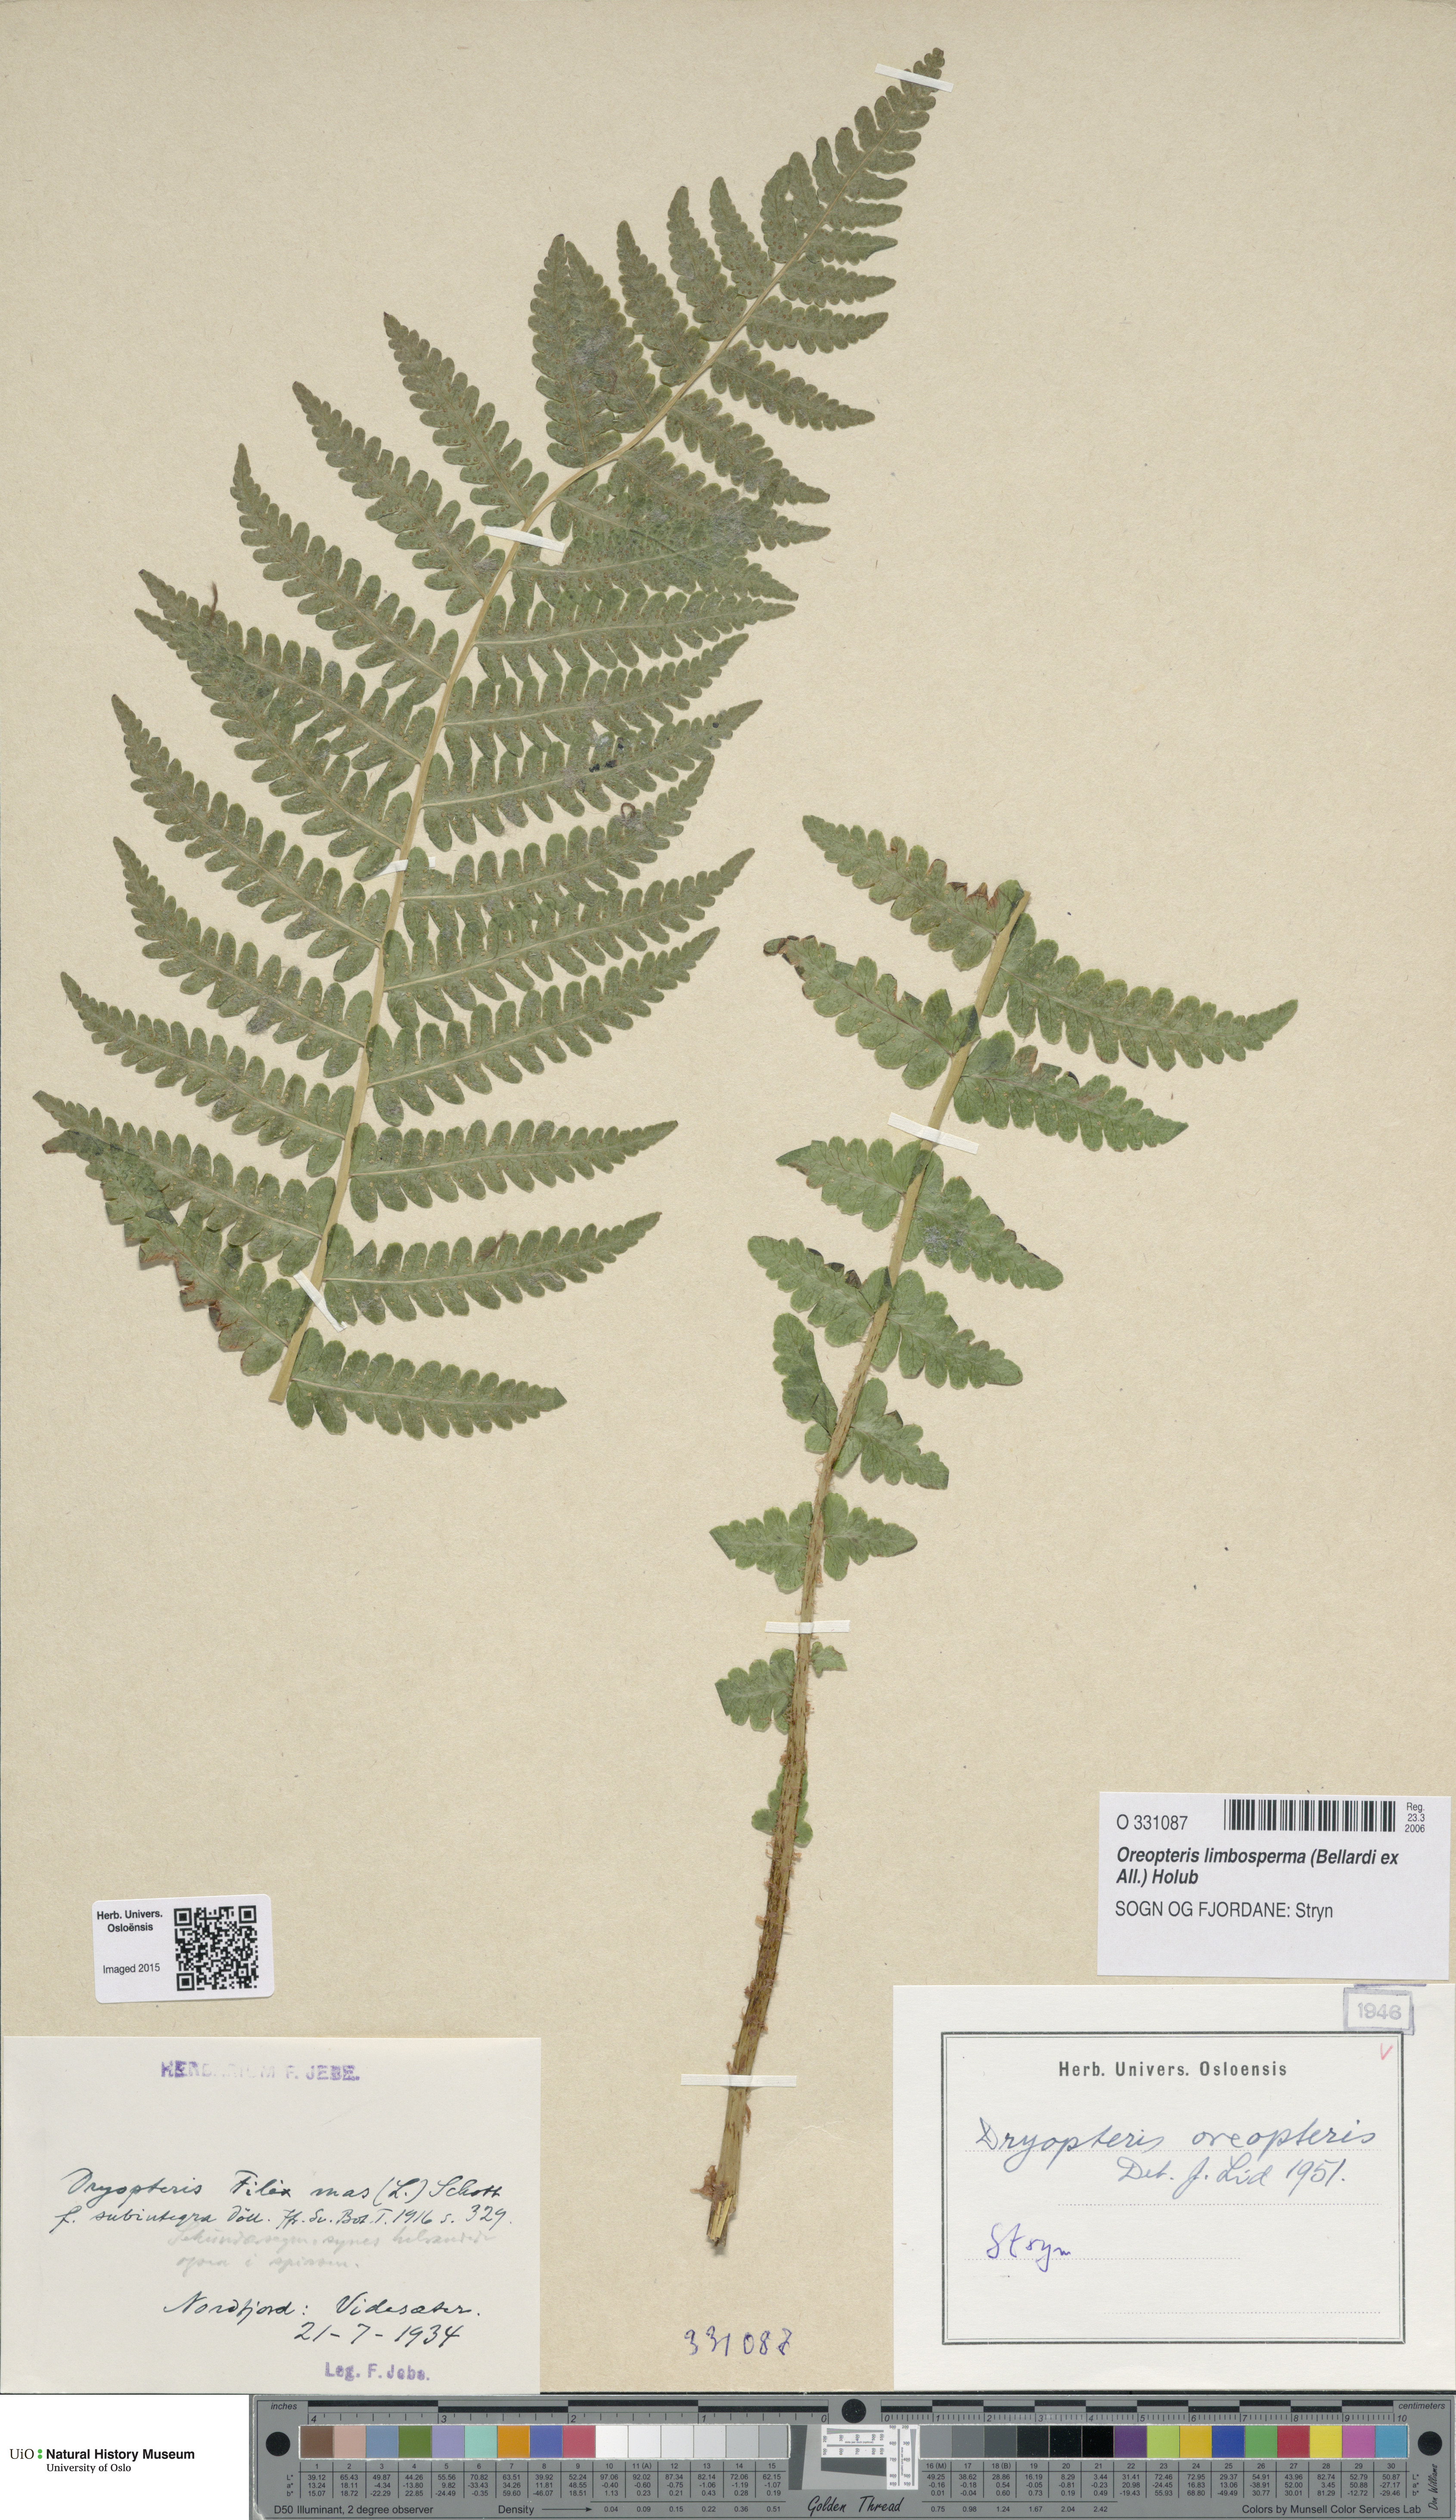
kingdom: Plantae
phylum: Tracheophyta
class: Polypodiopsida
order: Polypodiales
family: Thelypteridaceae
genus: Oreopteris
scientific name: Oreopteris limbosperma
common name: Lemon-scented fern
